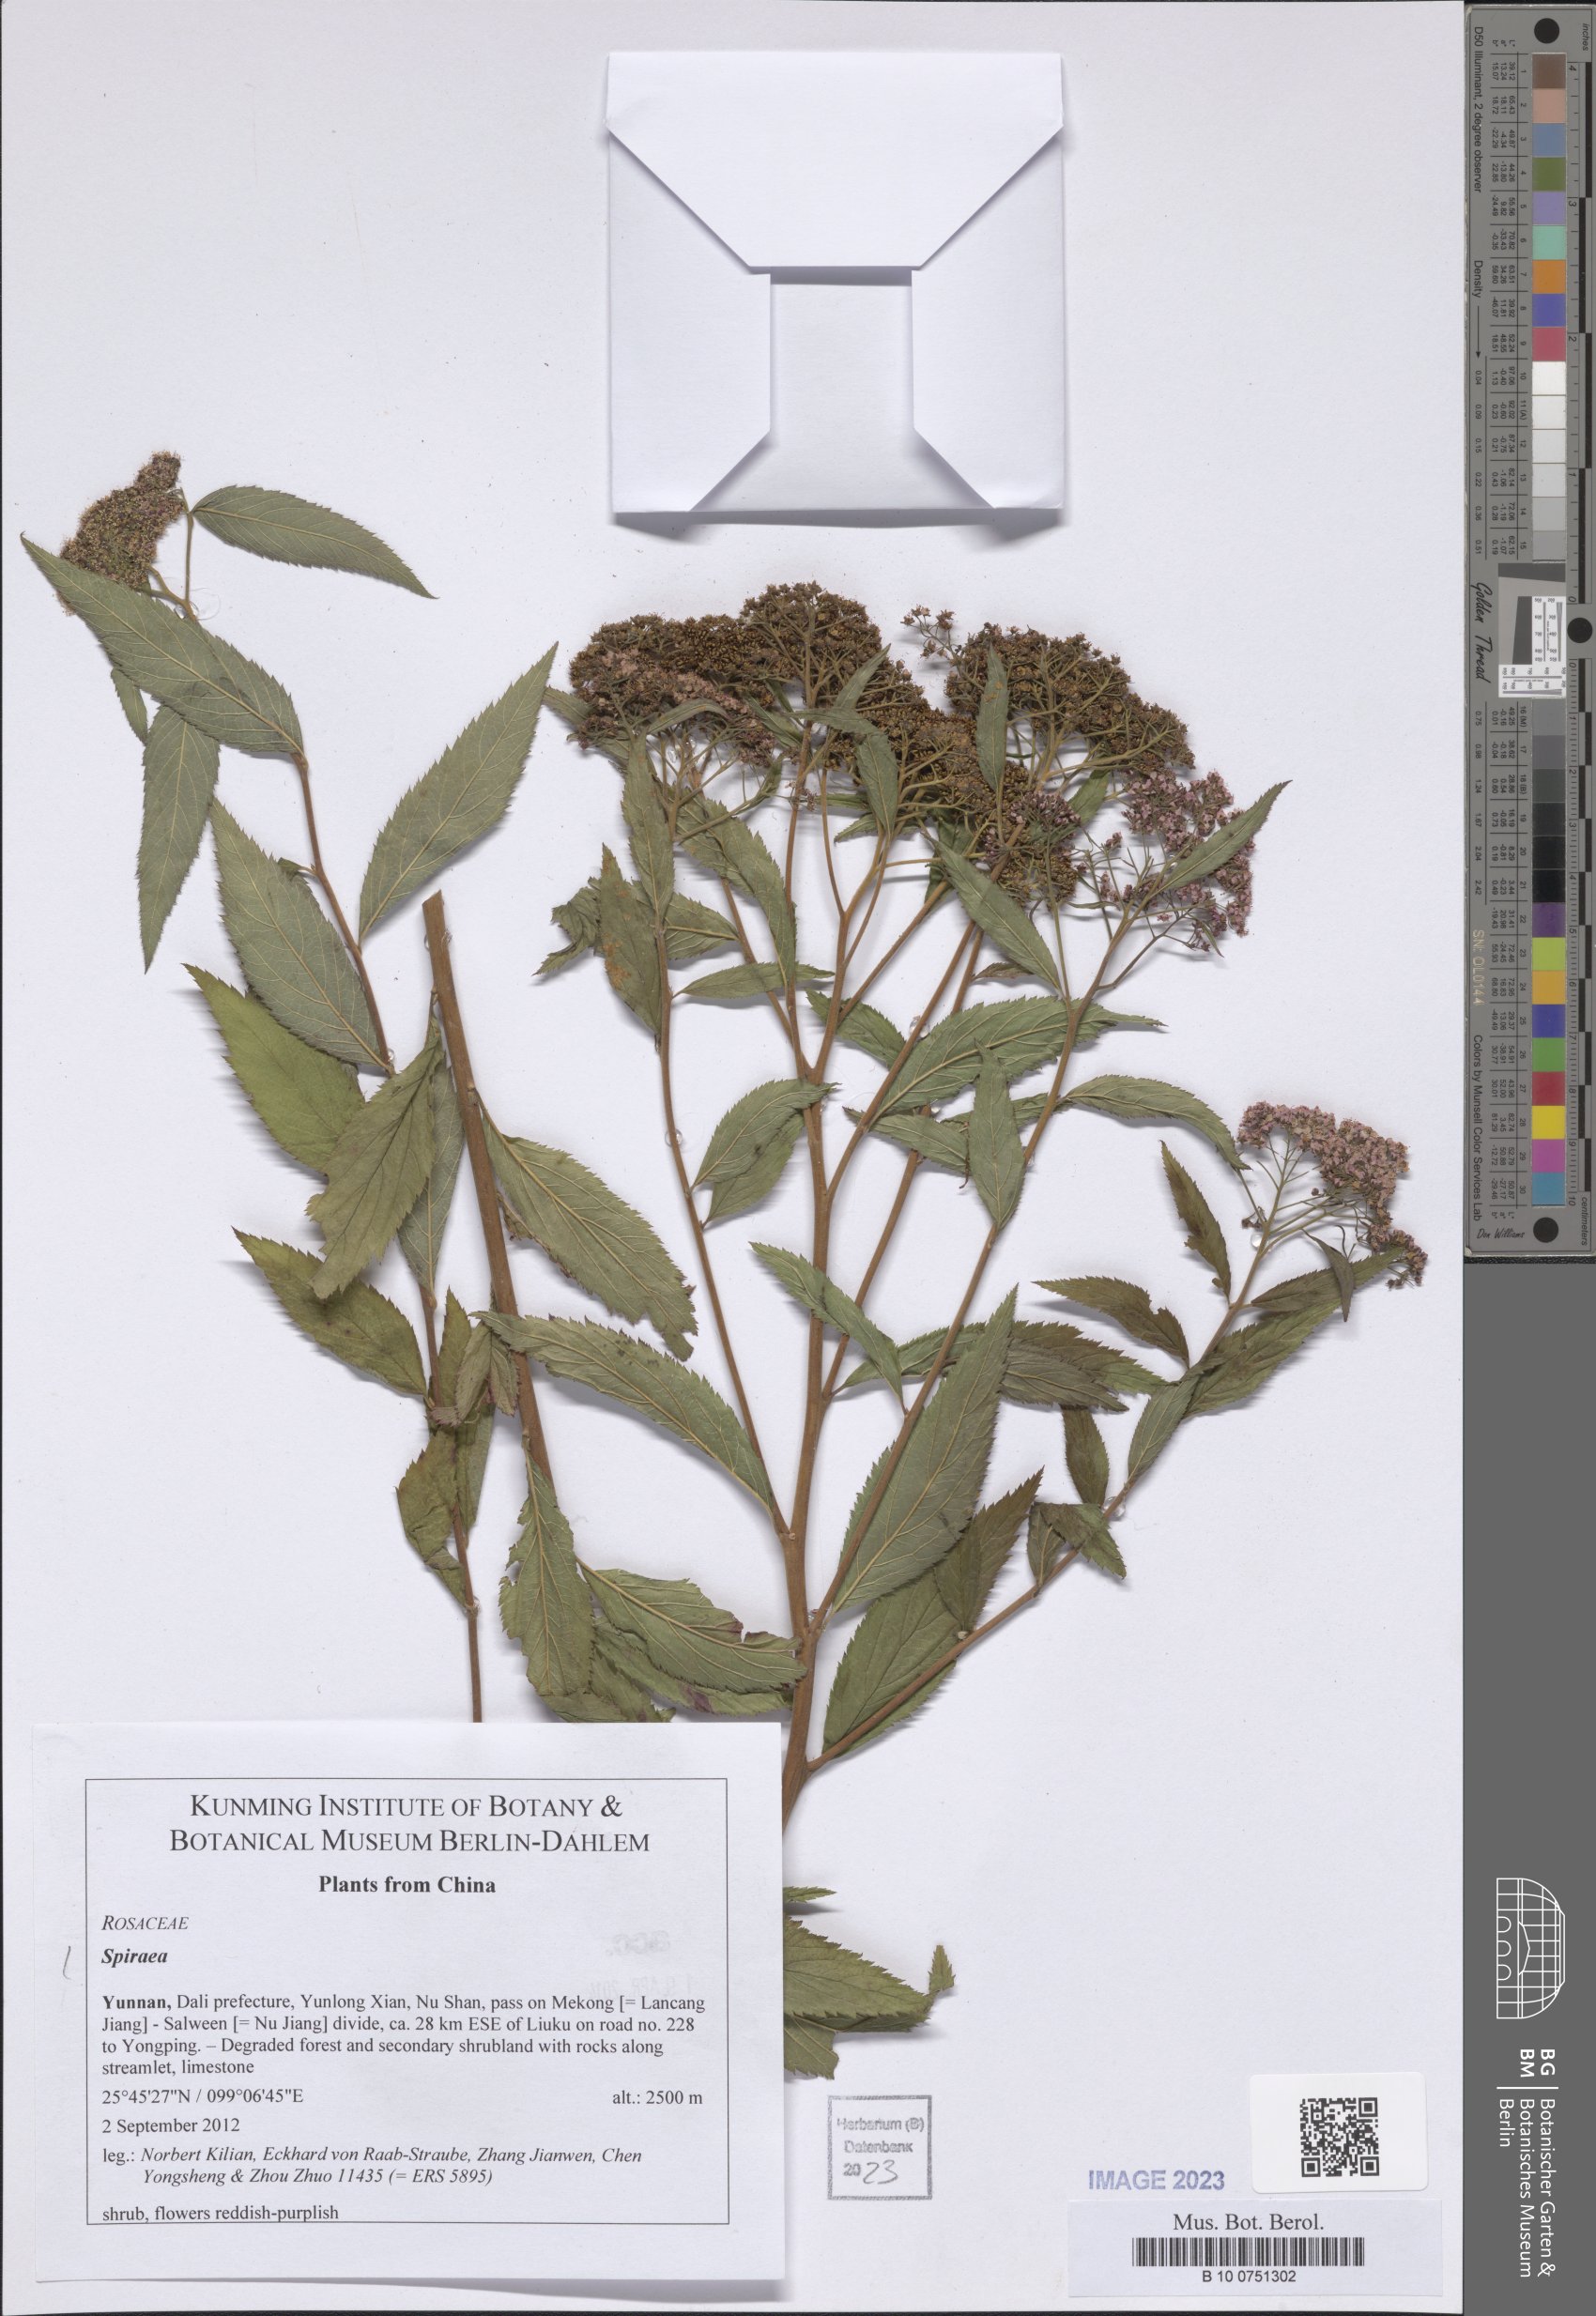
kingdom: Plantae
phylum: Tracheophyta
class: Magnoliopsida
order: Rosales
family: Rosaceae
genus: Spiraea
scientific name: Spiraea
